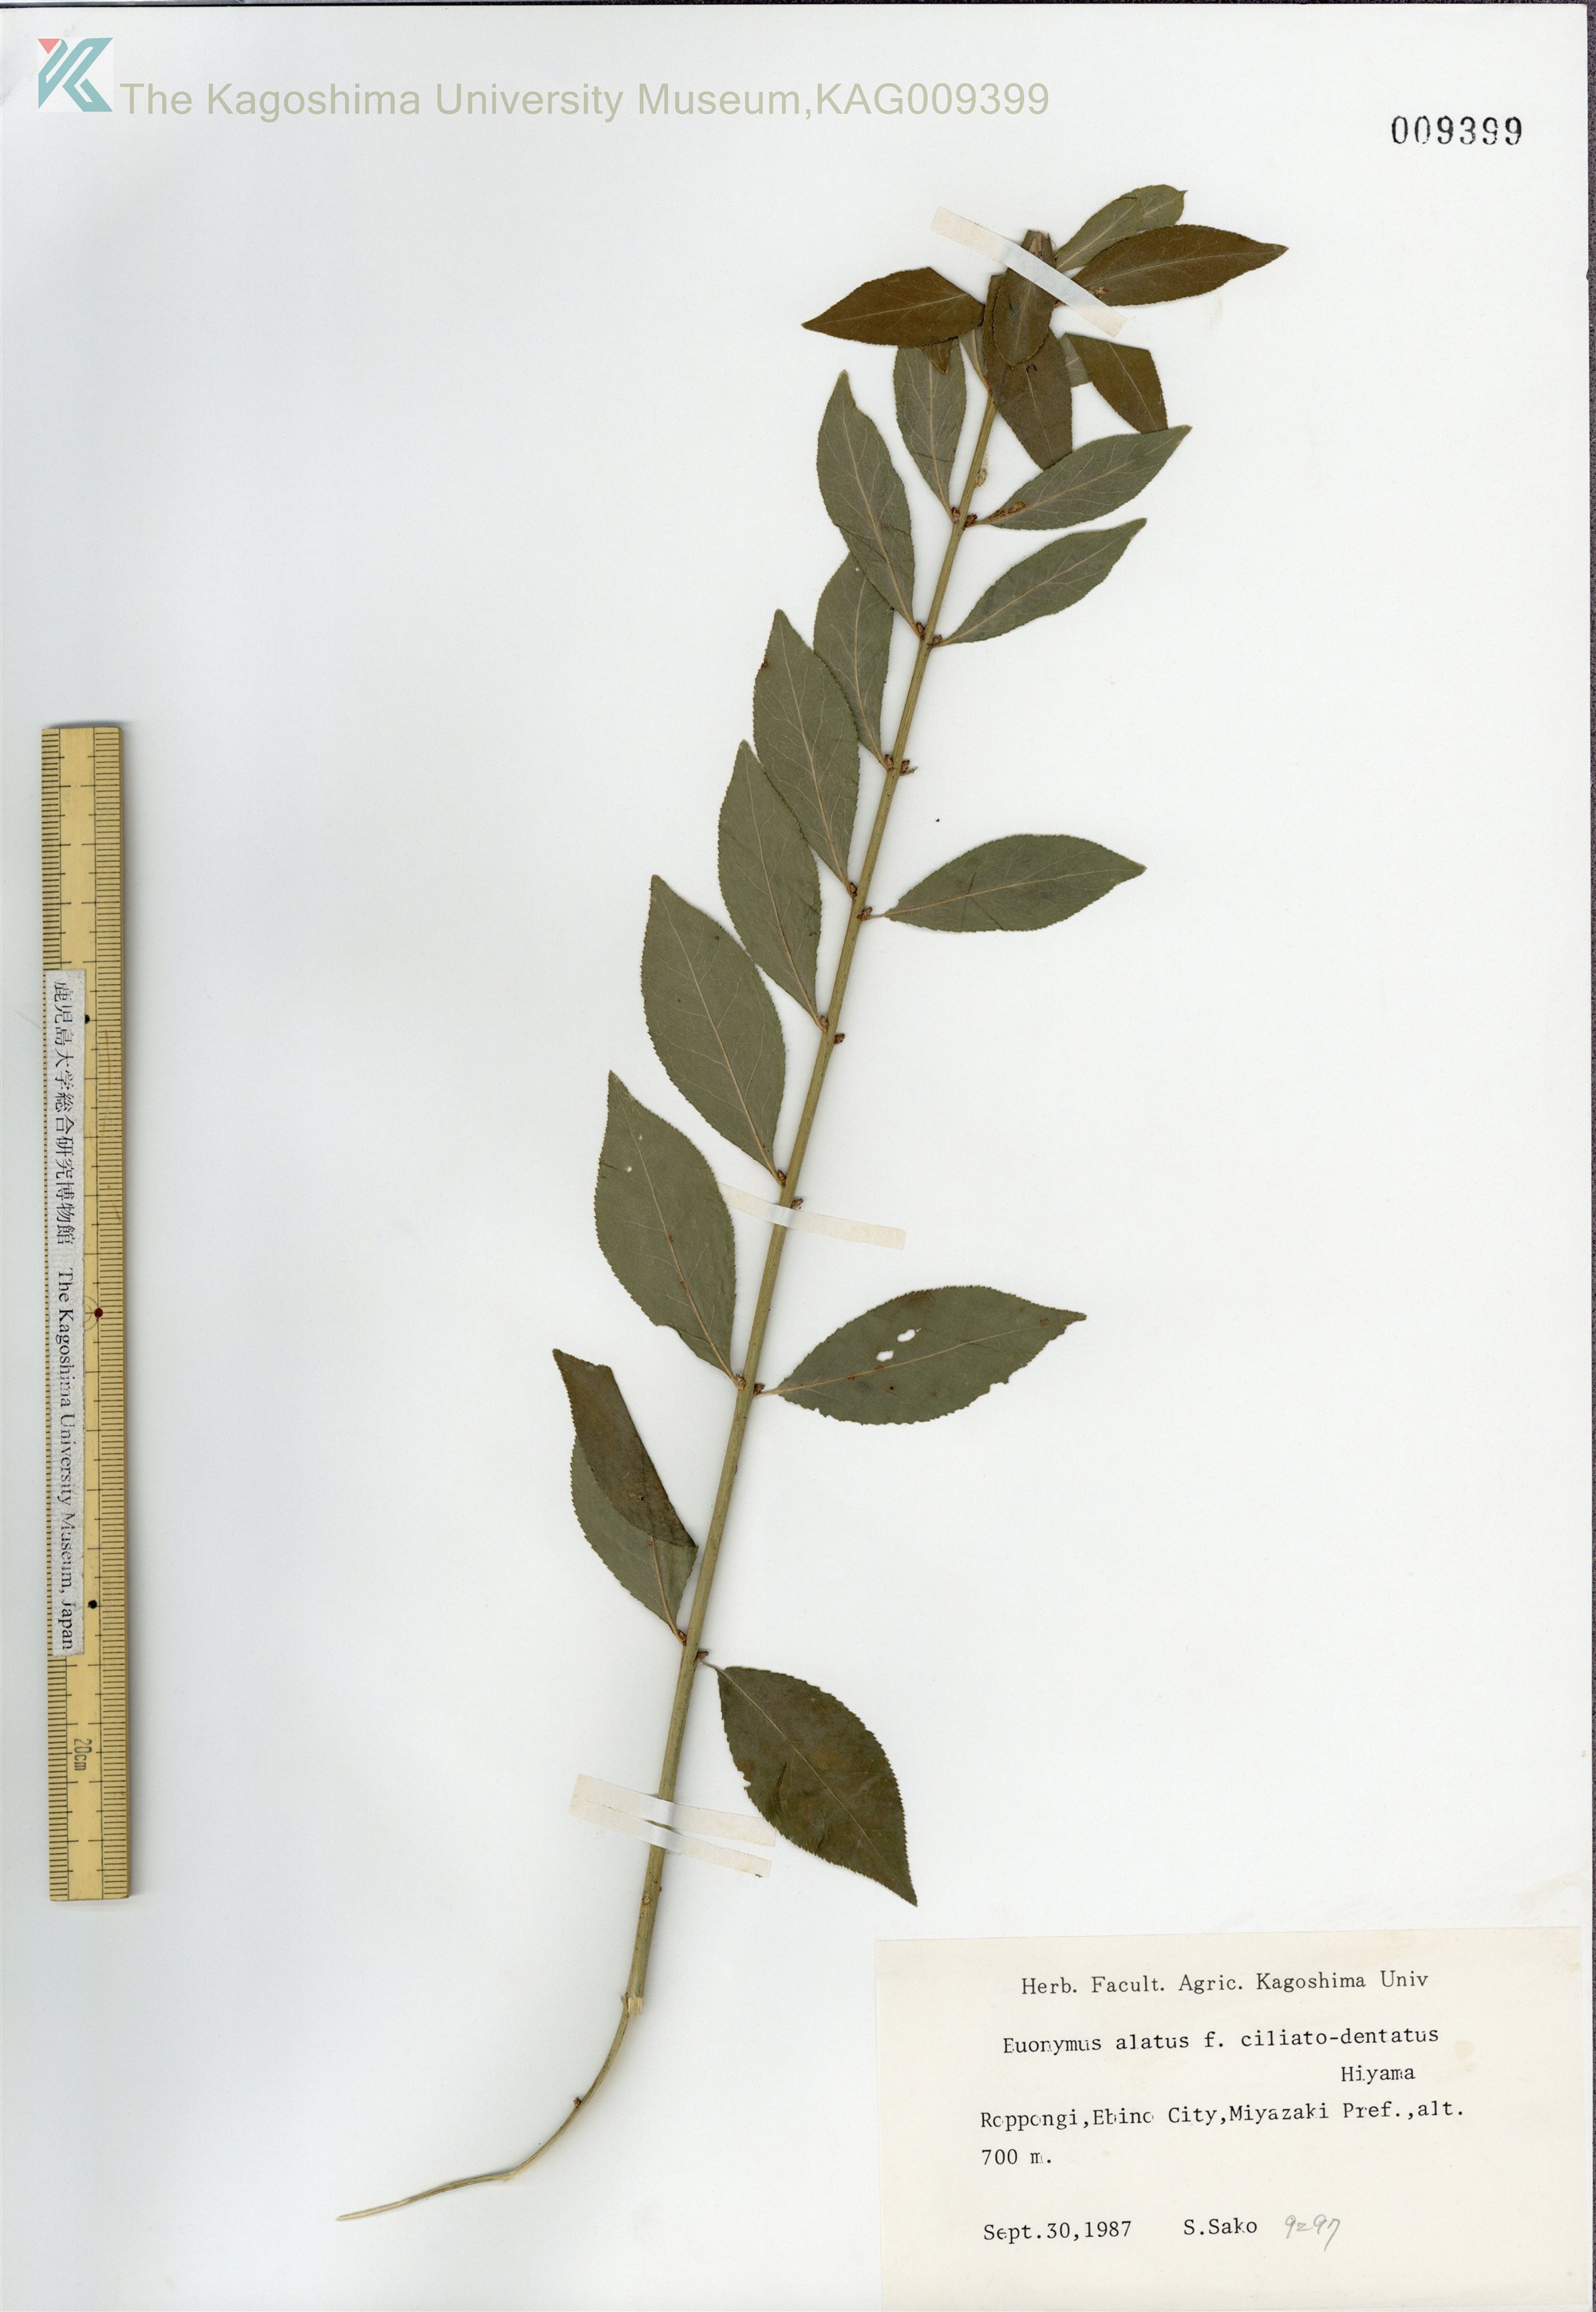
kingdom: Plantae
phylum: Tracheophyta
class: Magnoliopsida
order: Celastrales
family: Celastraceae
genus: Euonymus
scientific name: Euonymus alatus
